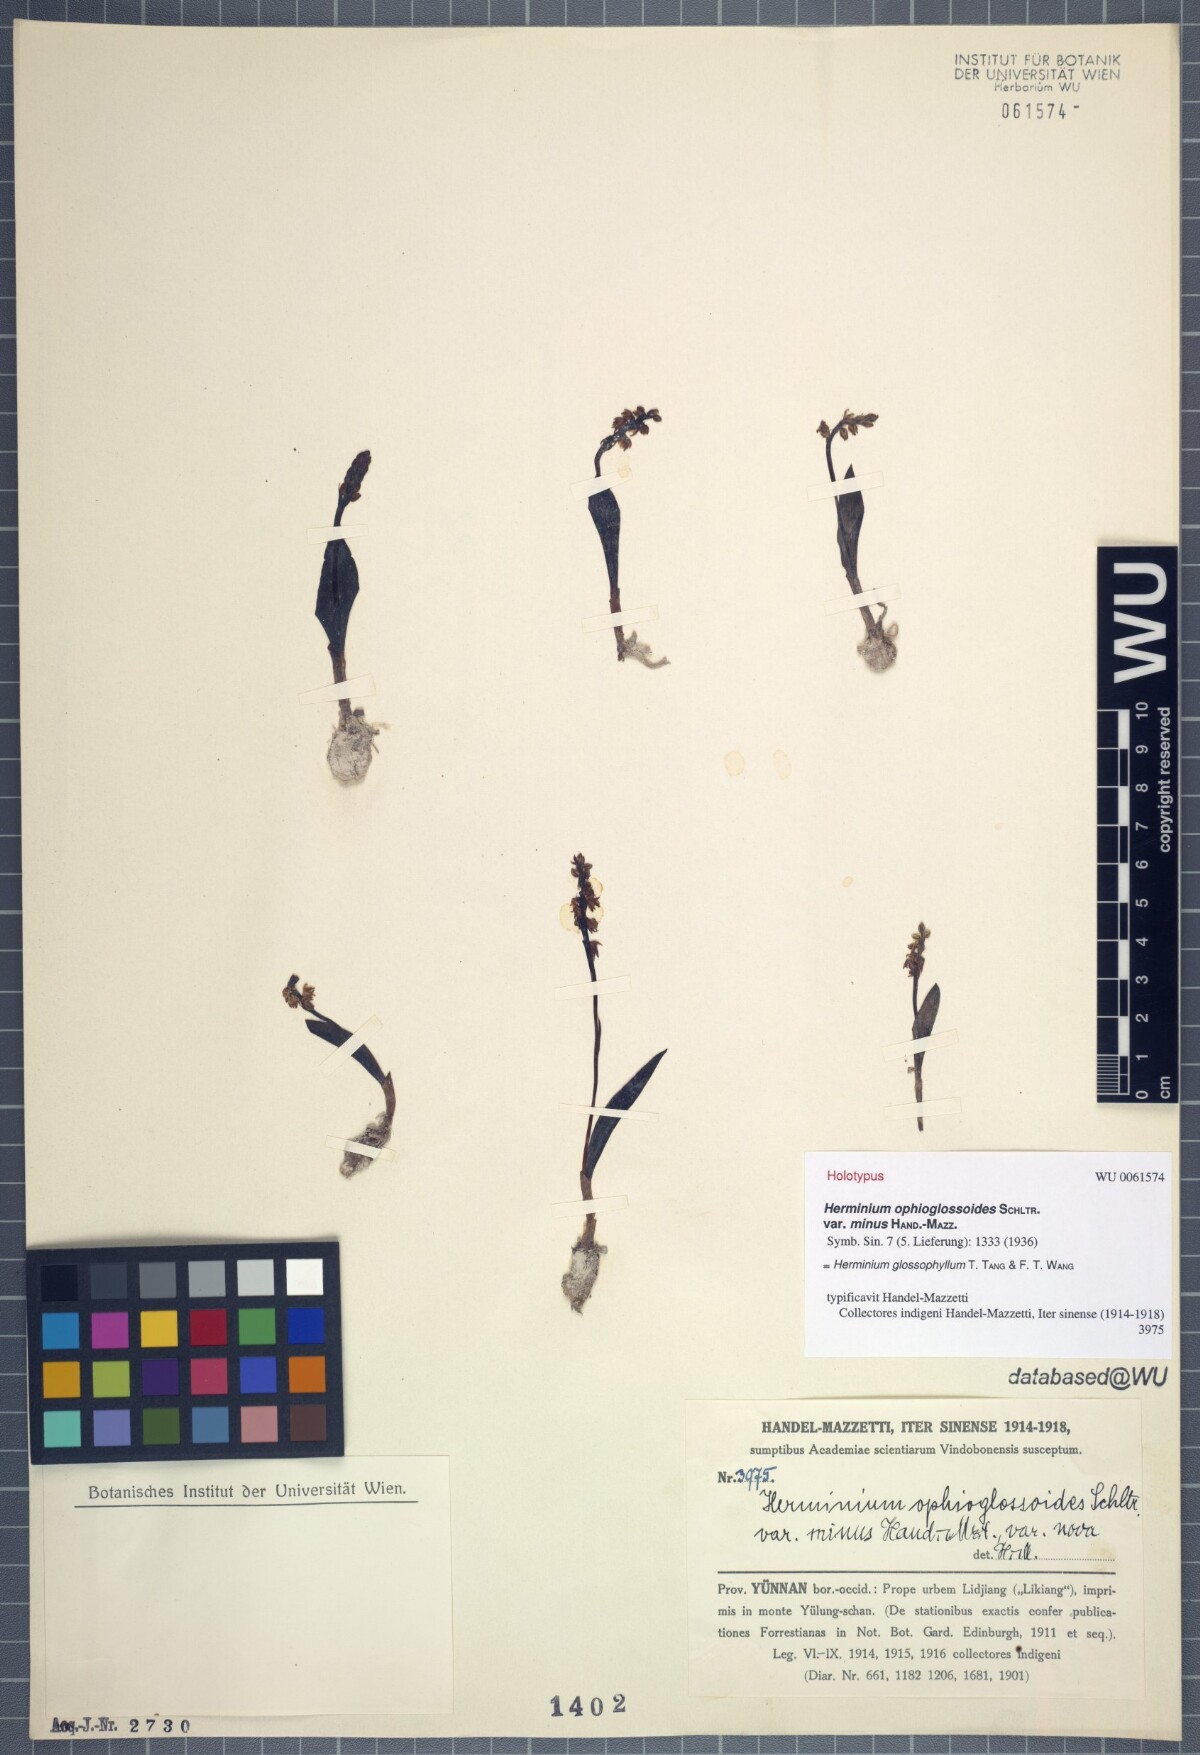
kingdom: Plantae
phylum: Tracheophyta
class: Liliopsida
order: Asparagales
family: Orchidaceae
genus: Herminium
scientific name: Herminium glossophyllum
